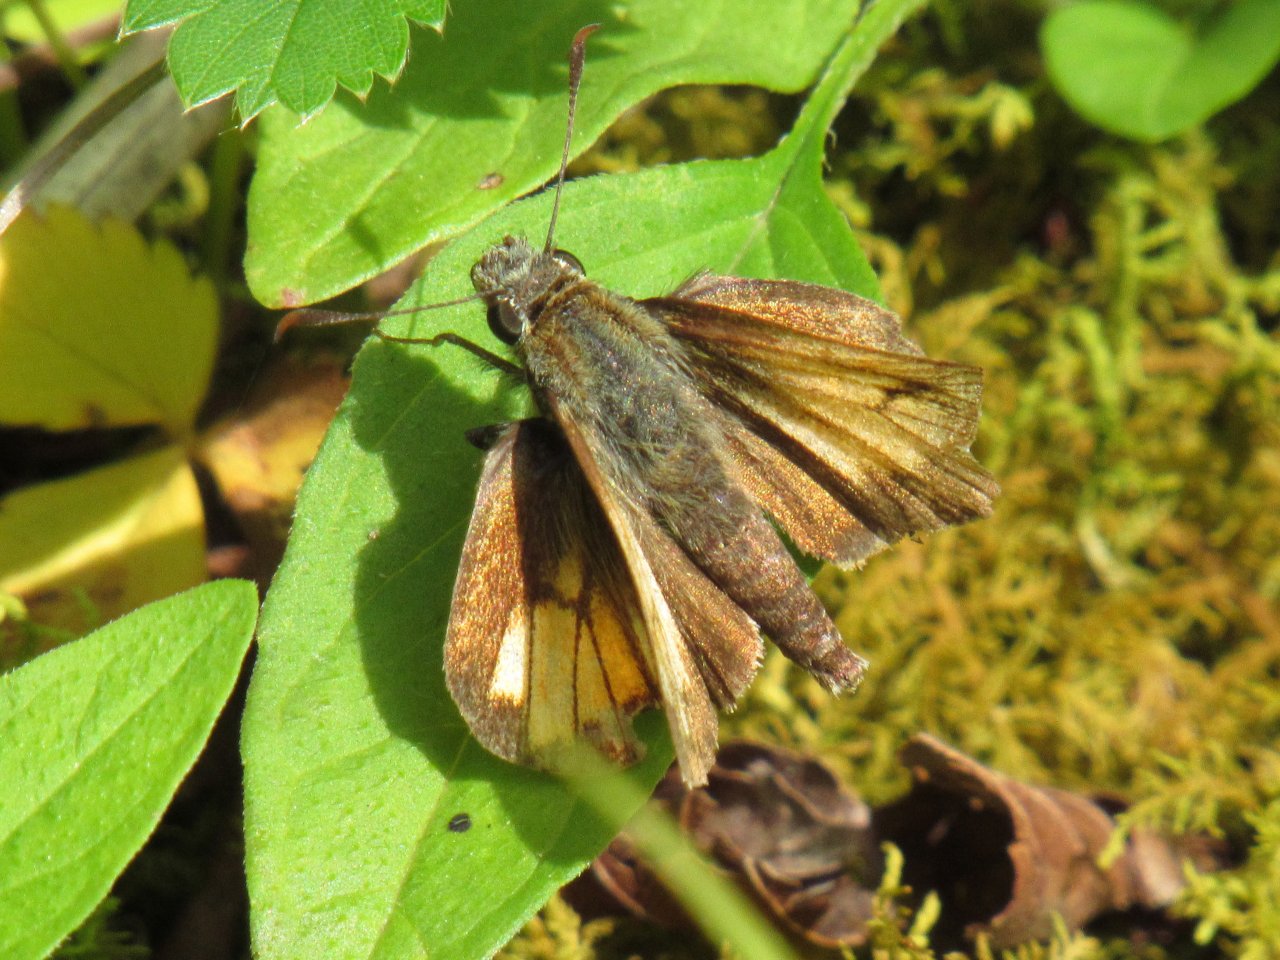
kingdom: Animalia
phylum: Arthropoda
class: Insecta
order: Lepidoptera
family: Hesperiidae
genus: Lon
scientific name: Lon hobomok
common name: Hobomok Skipper
